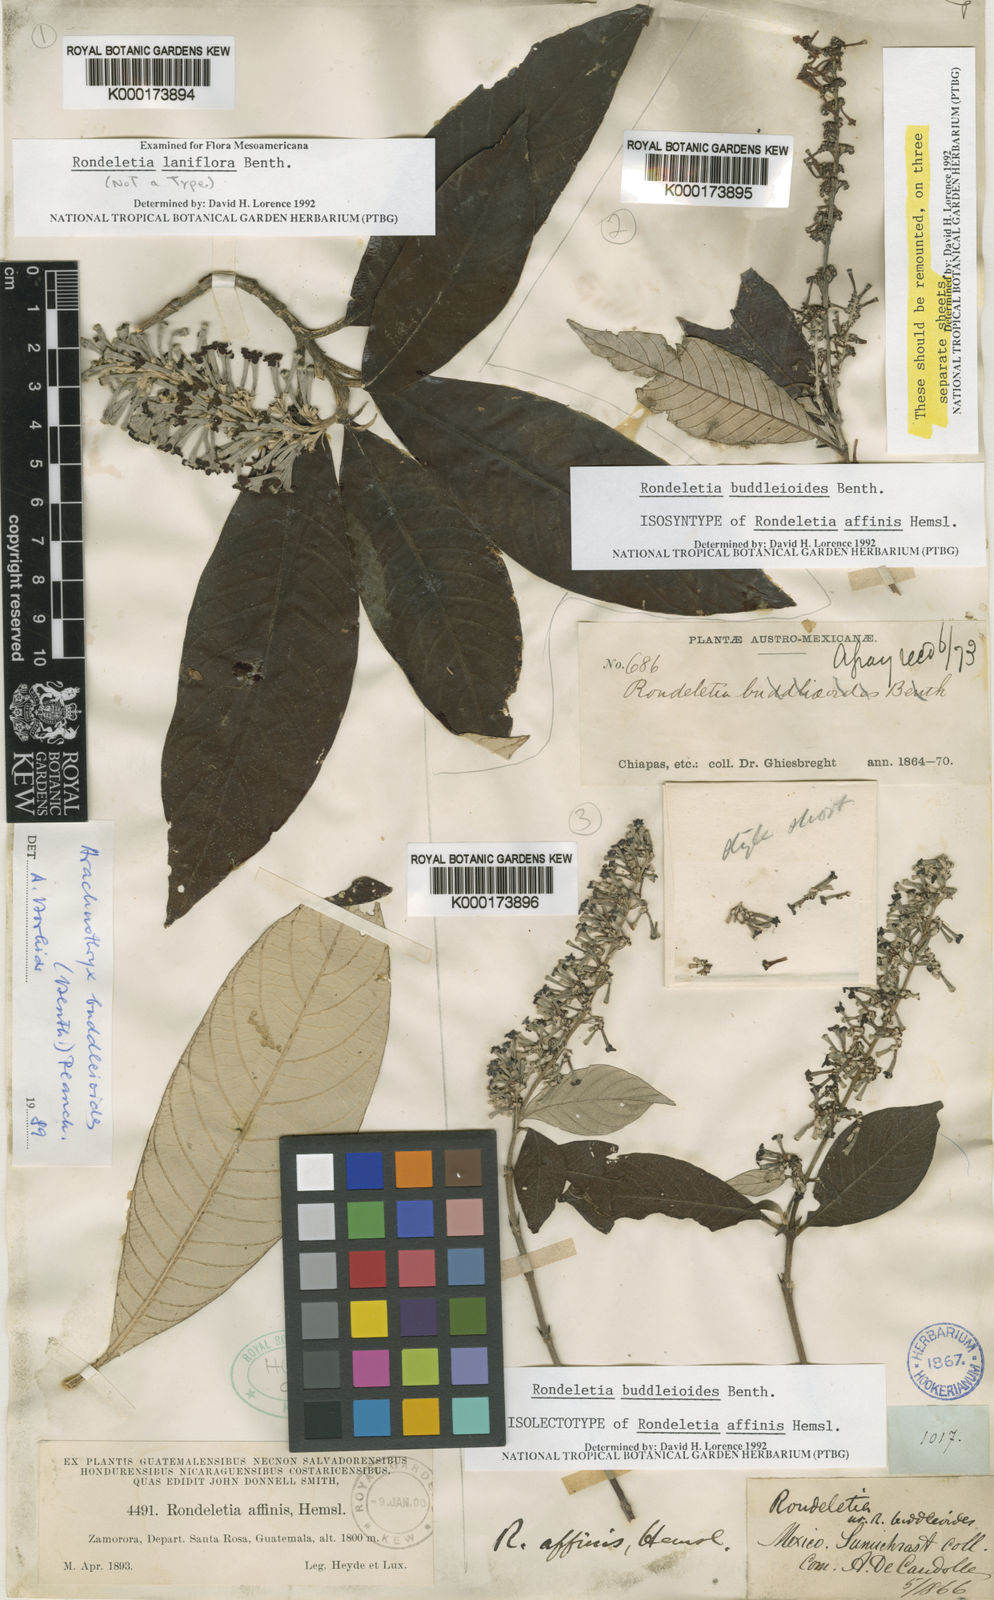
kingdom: Plantae
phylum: Tracheophyta
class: Magnoliopsida
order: Gentianales
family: Rubiaceae
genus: Arachnothryx
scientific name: Arachnothryx buddleioides
